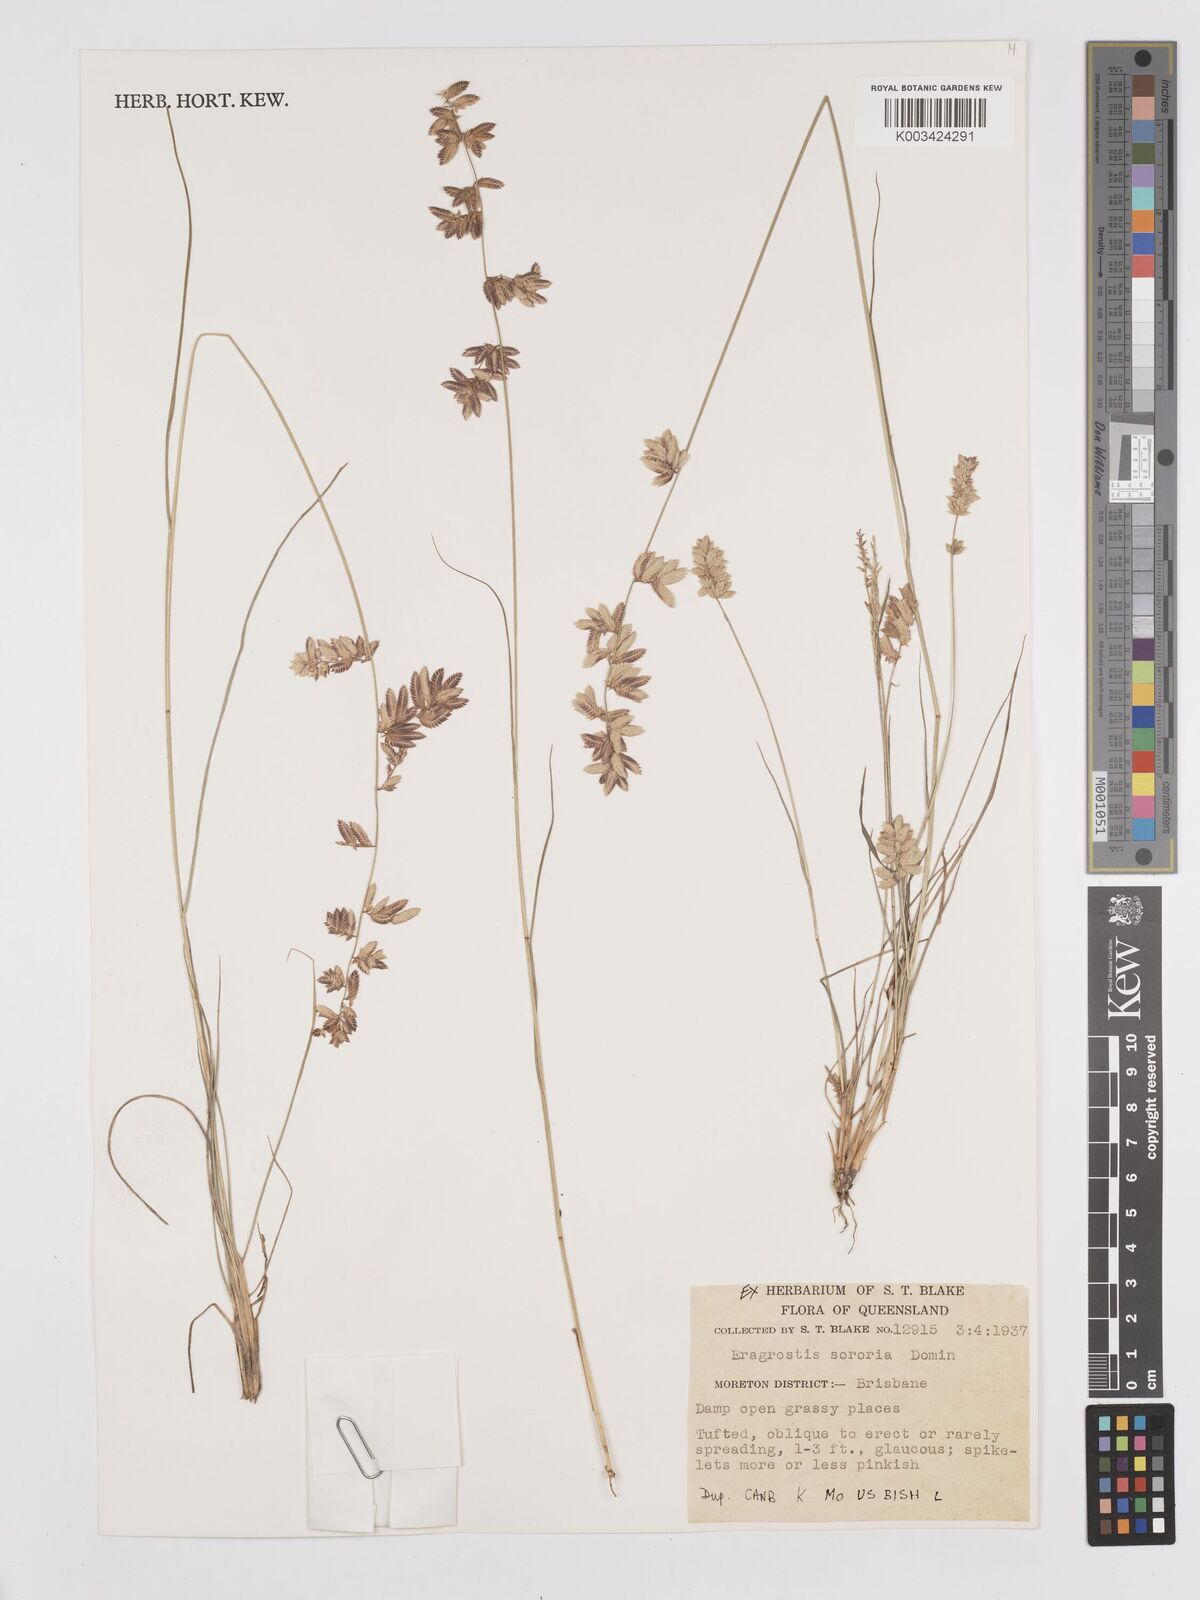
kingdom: Plantae
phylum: Tracheophyta
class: Liliopsida
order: Poales
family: Poaceae
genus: Eragrostis
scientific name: Eragrostis sororia
